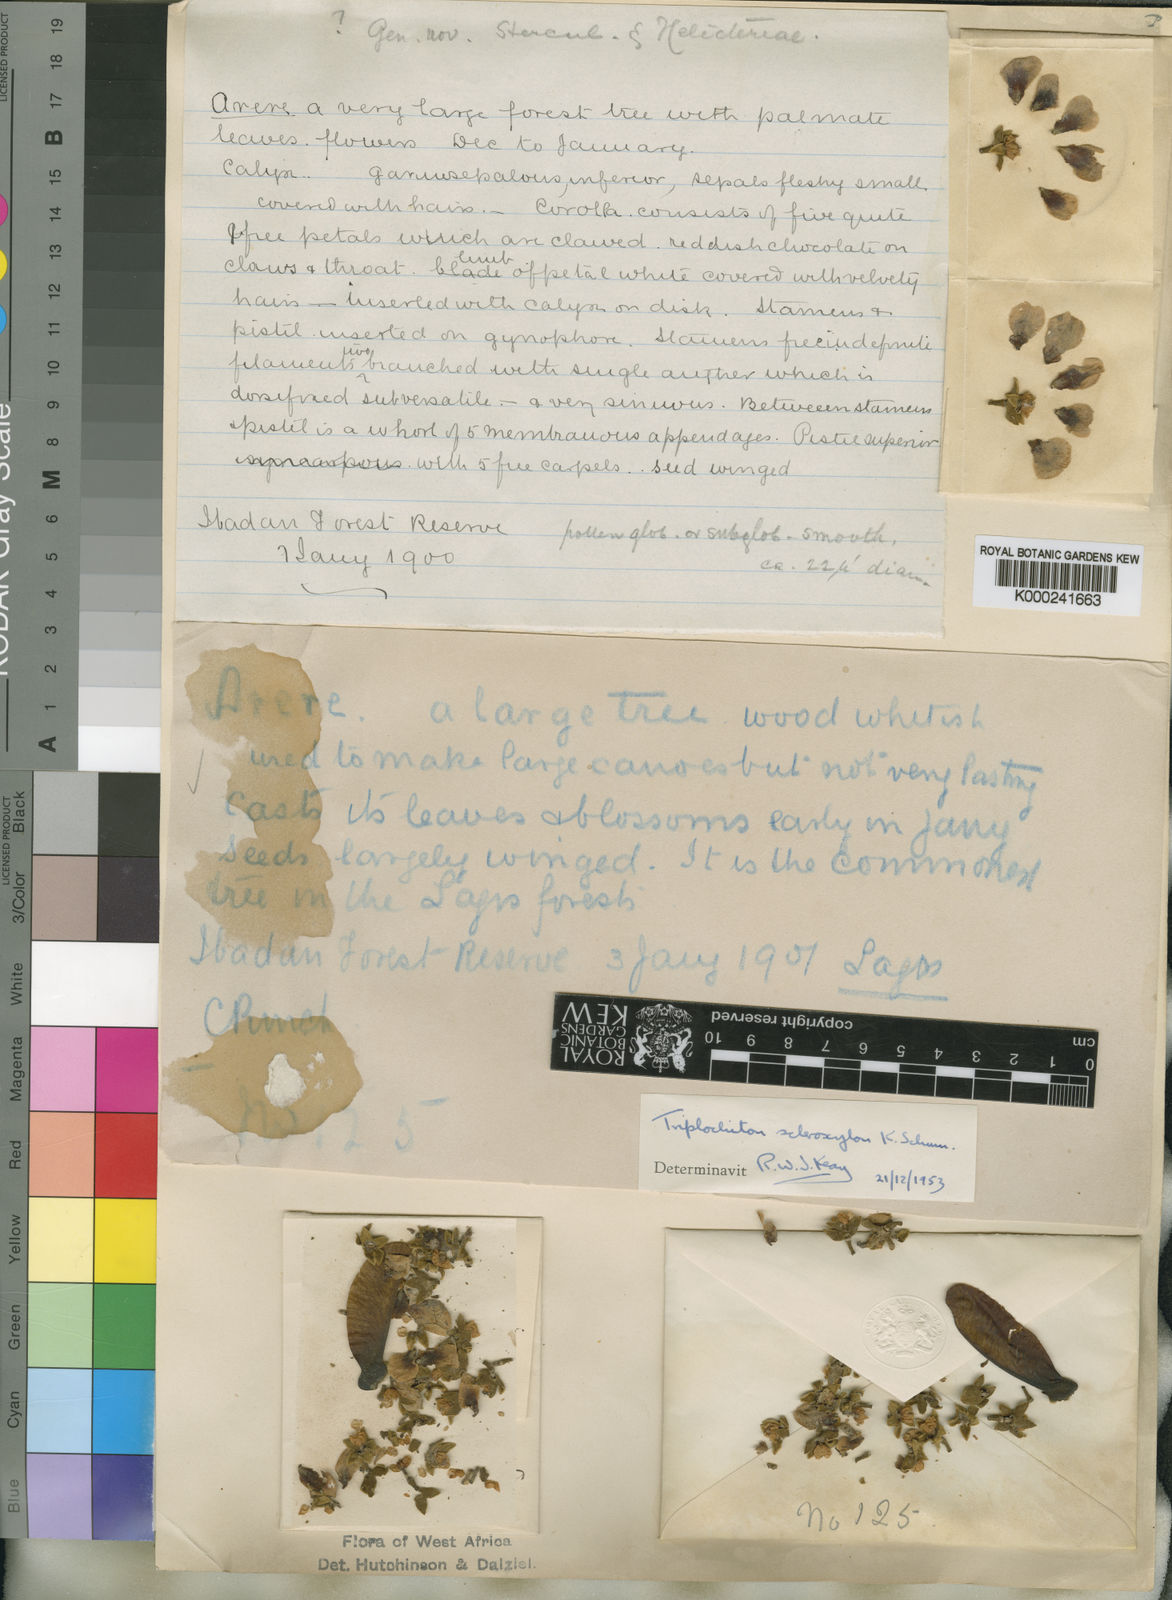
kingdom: Plantae
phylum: Tracheophyta
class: Magnoliopsida
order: Malvales
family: Malvaceae
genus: Triplochiton
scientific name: Triplochiton scleroxylon
